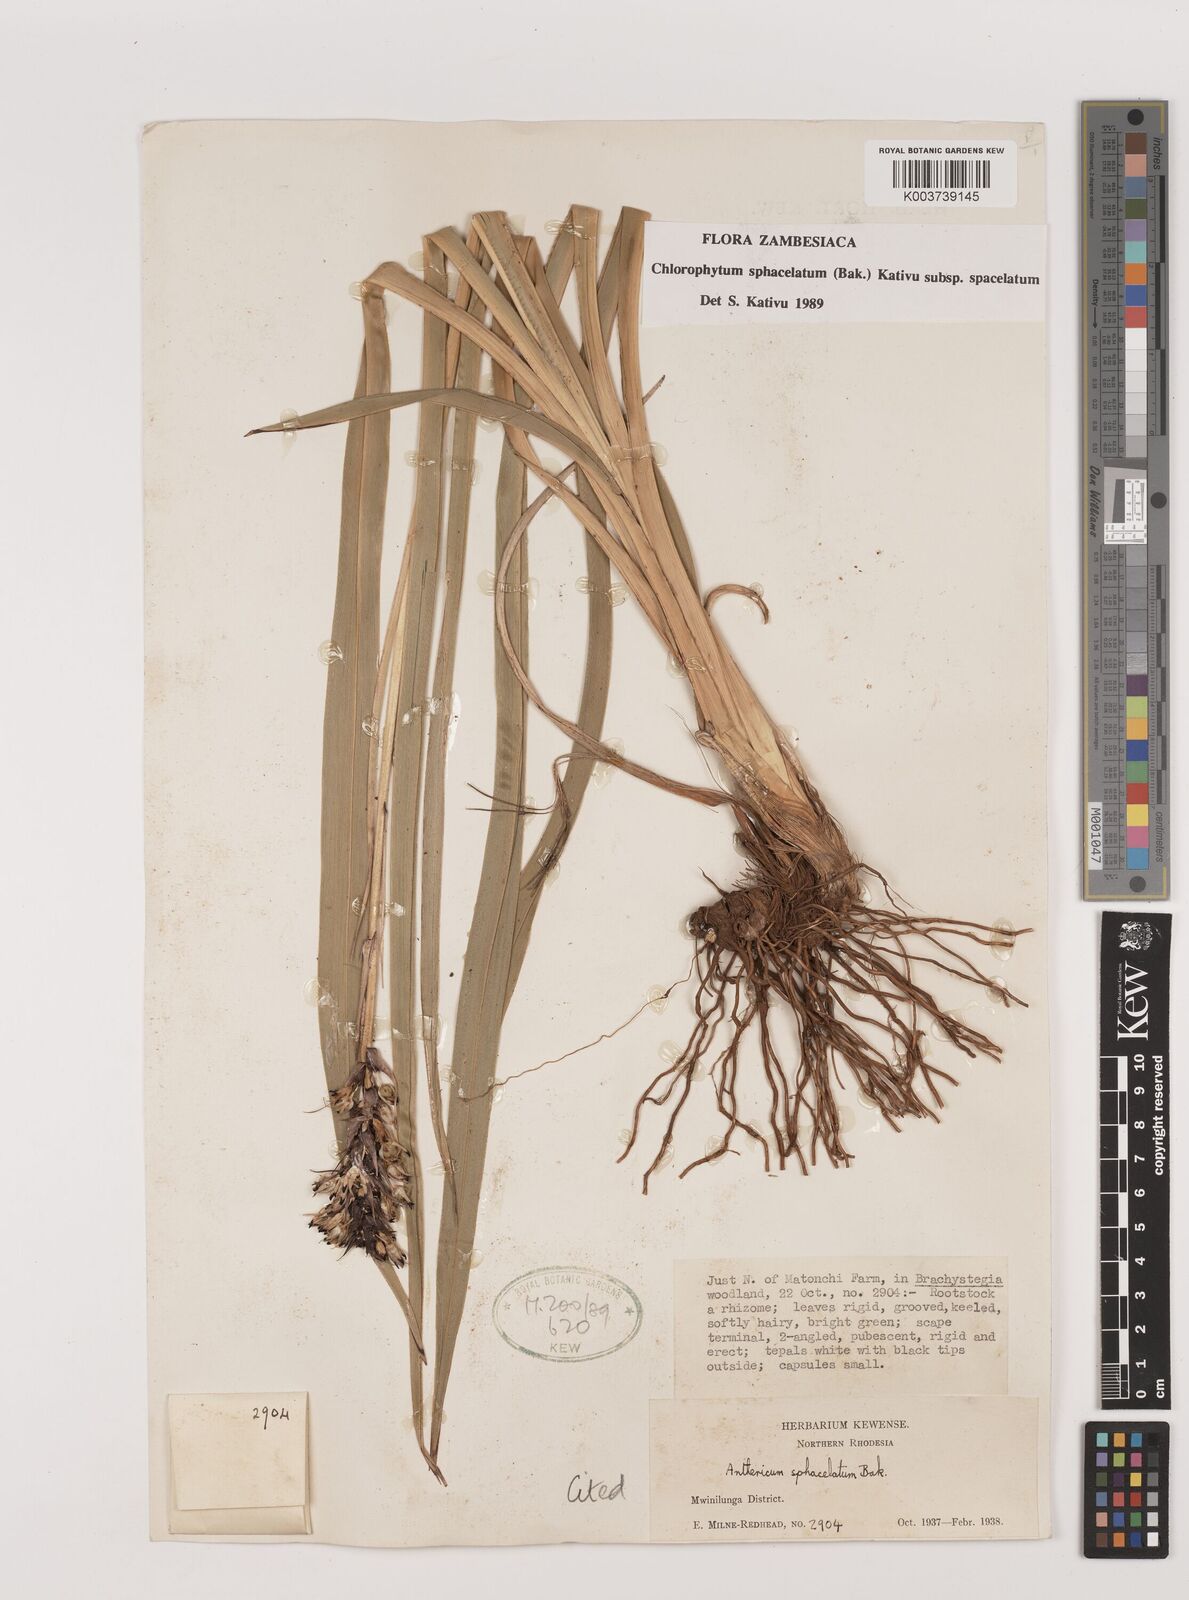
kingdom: Plantae
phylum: Tracheophyta
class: Liliopsida
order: Asparagales
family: Asparagaceae
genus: Chlorophytum
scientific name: Chlorophytum sphacelatum
